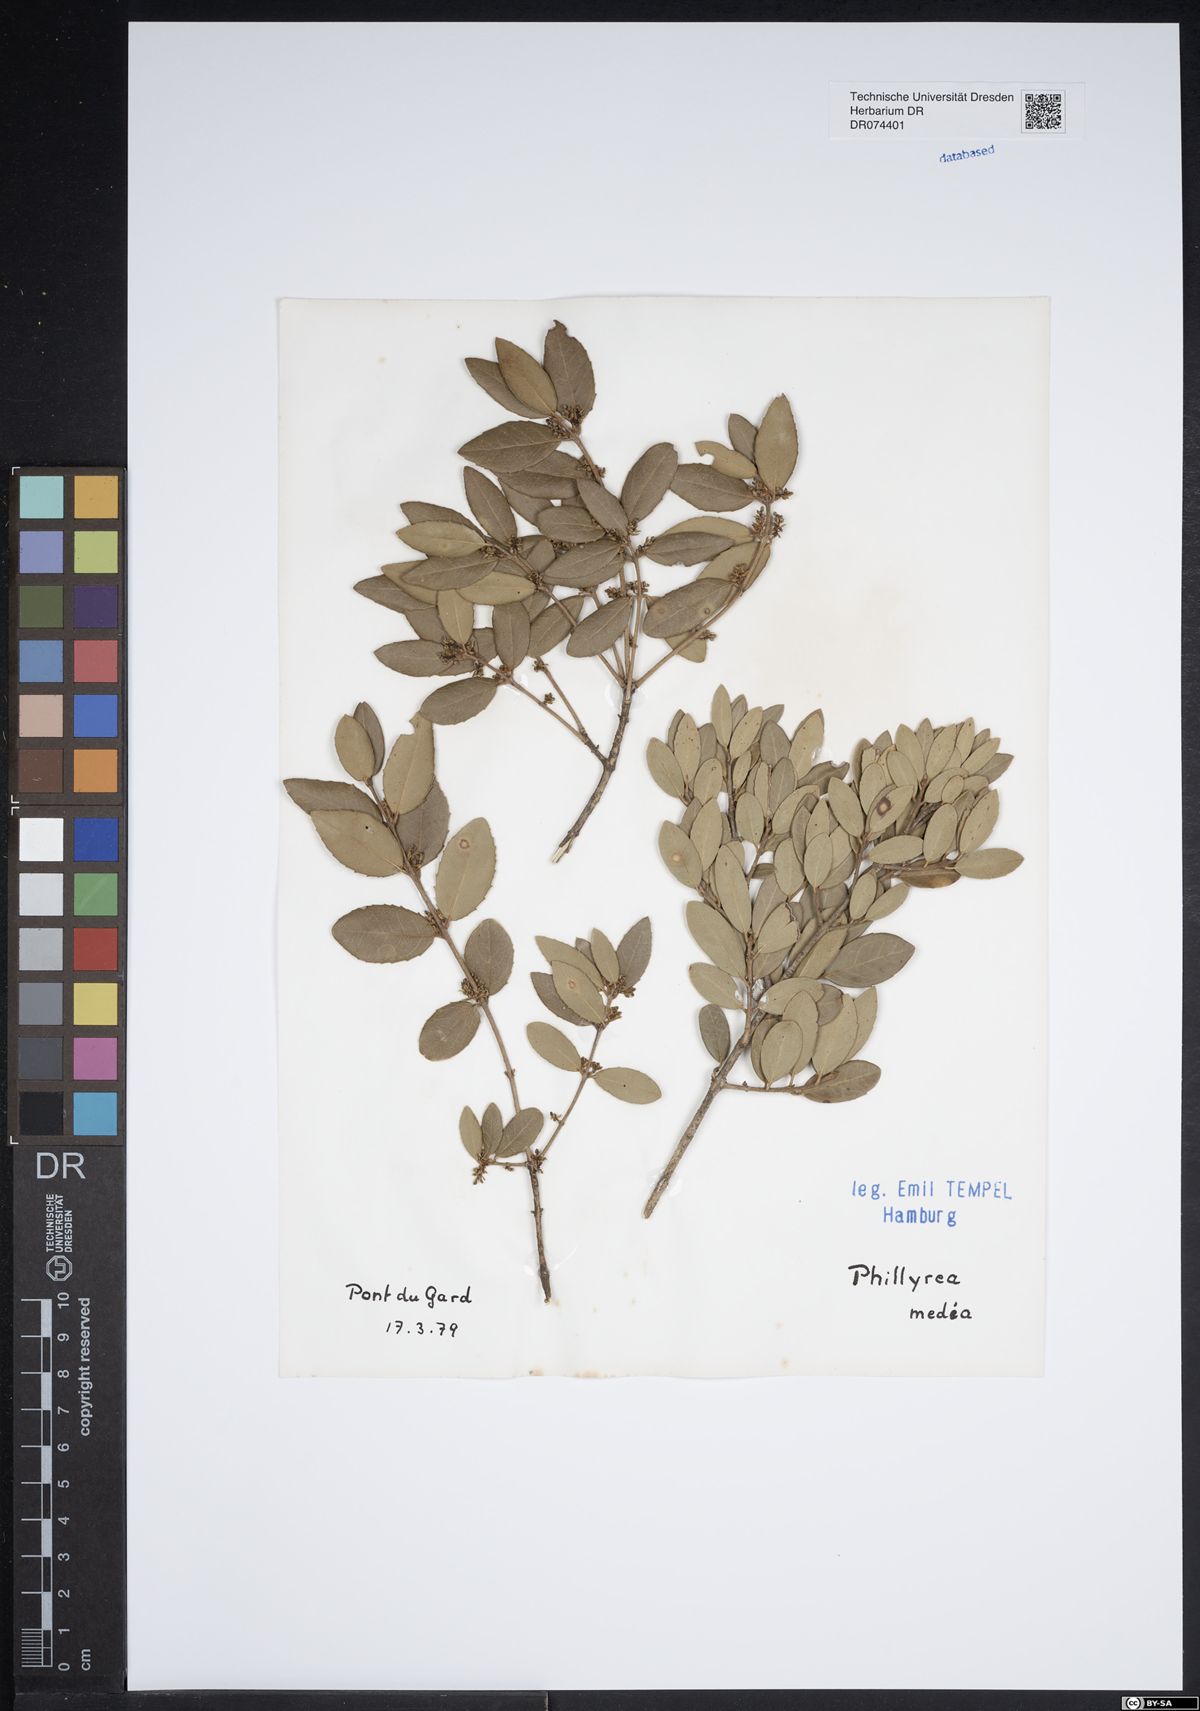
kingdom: Plantae
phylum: Tracheophyta
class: Magnoliopsida
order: Lamiales
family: Oleaceae
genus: Phillyrea
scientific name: Phillyrea latifolia
